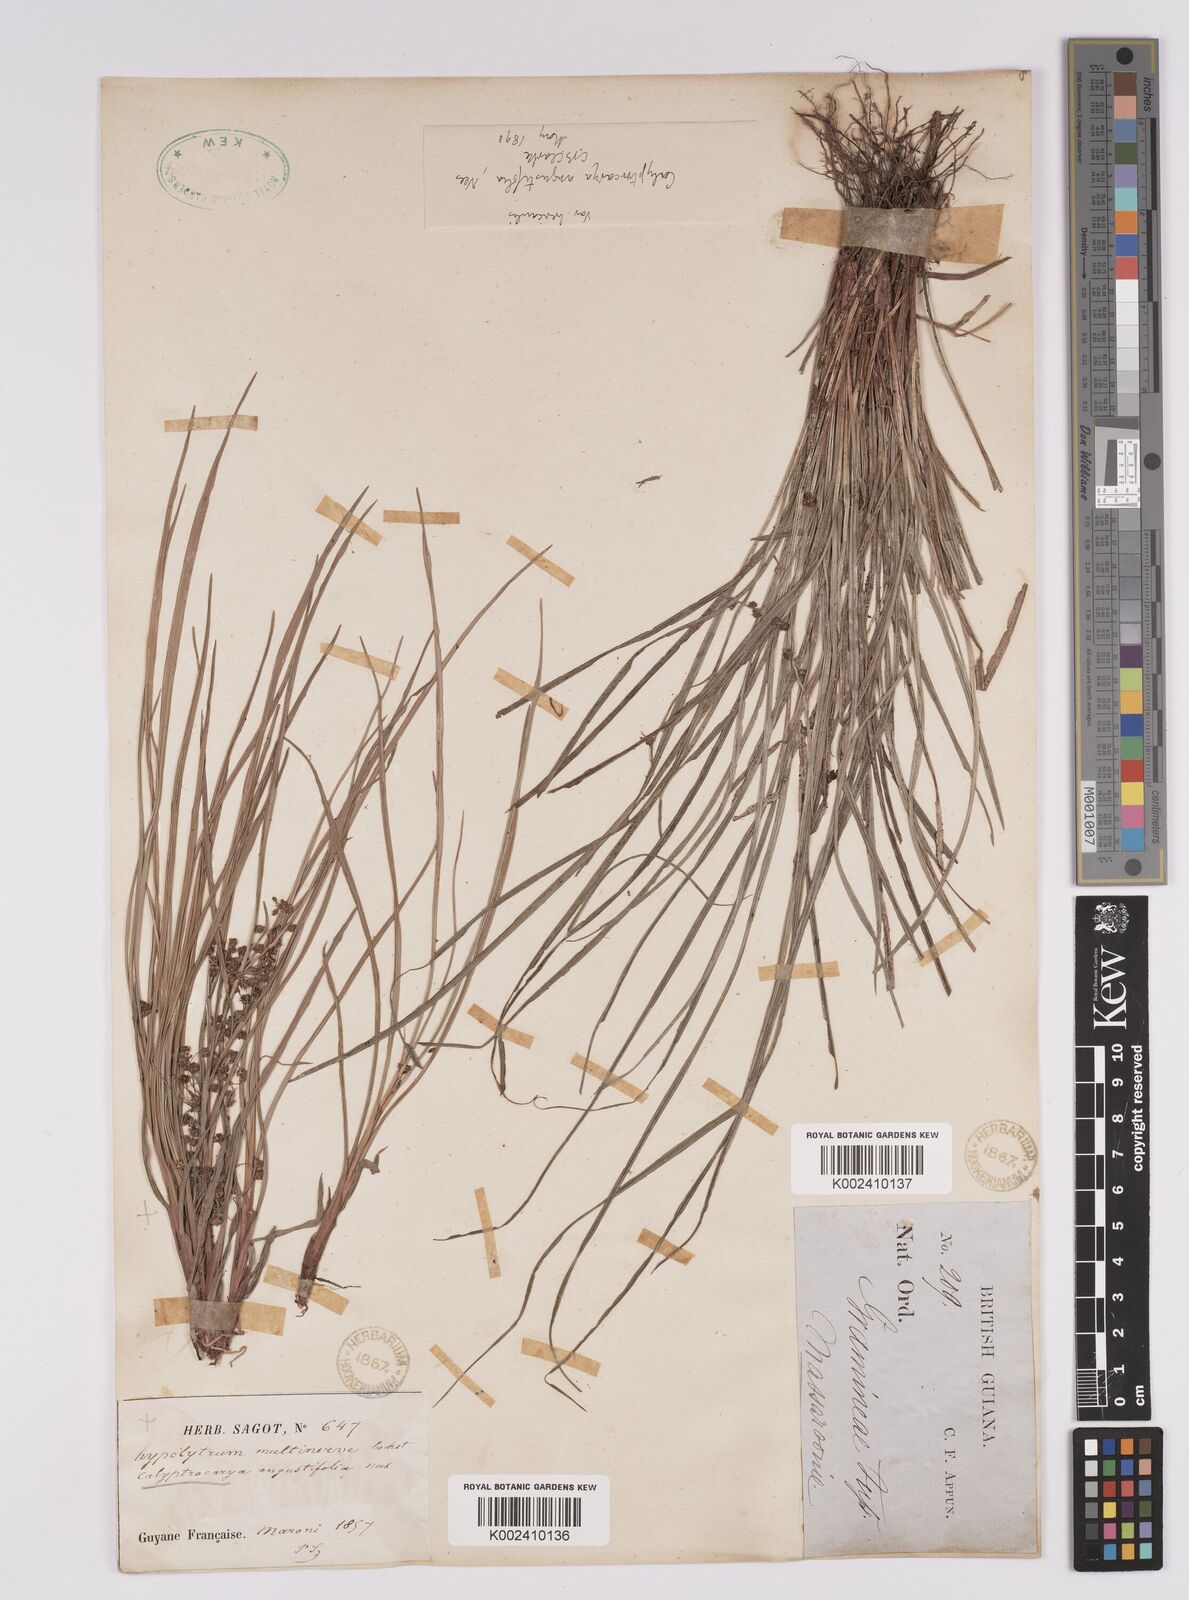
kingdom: Plantae
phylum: Tracheophyta
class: Liliopsida
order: Poales
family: Cyperaceae
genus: Calyptrocarya
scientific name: Calyptrocarya glomerulata
